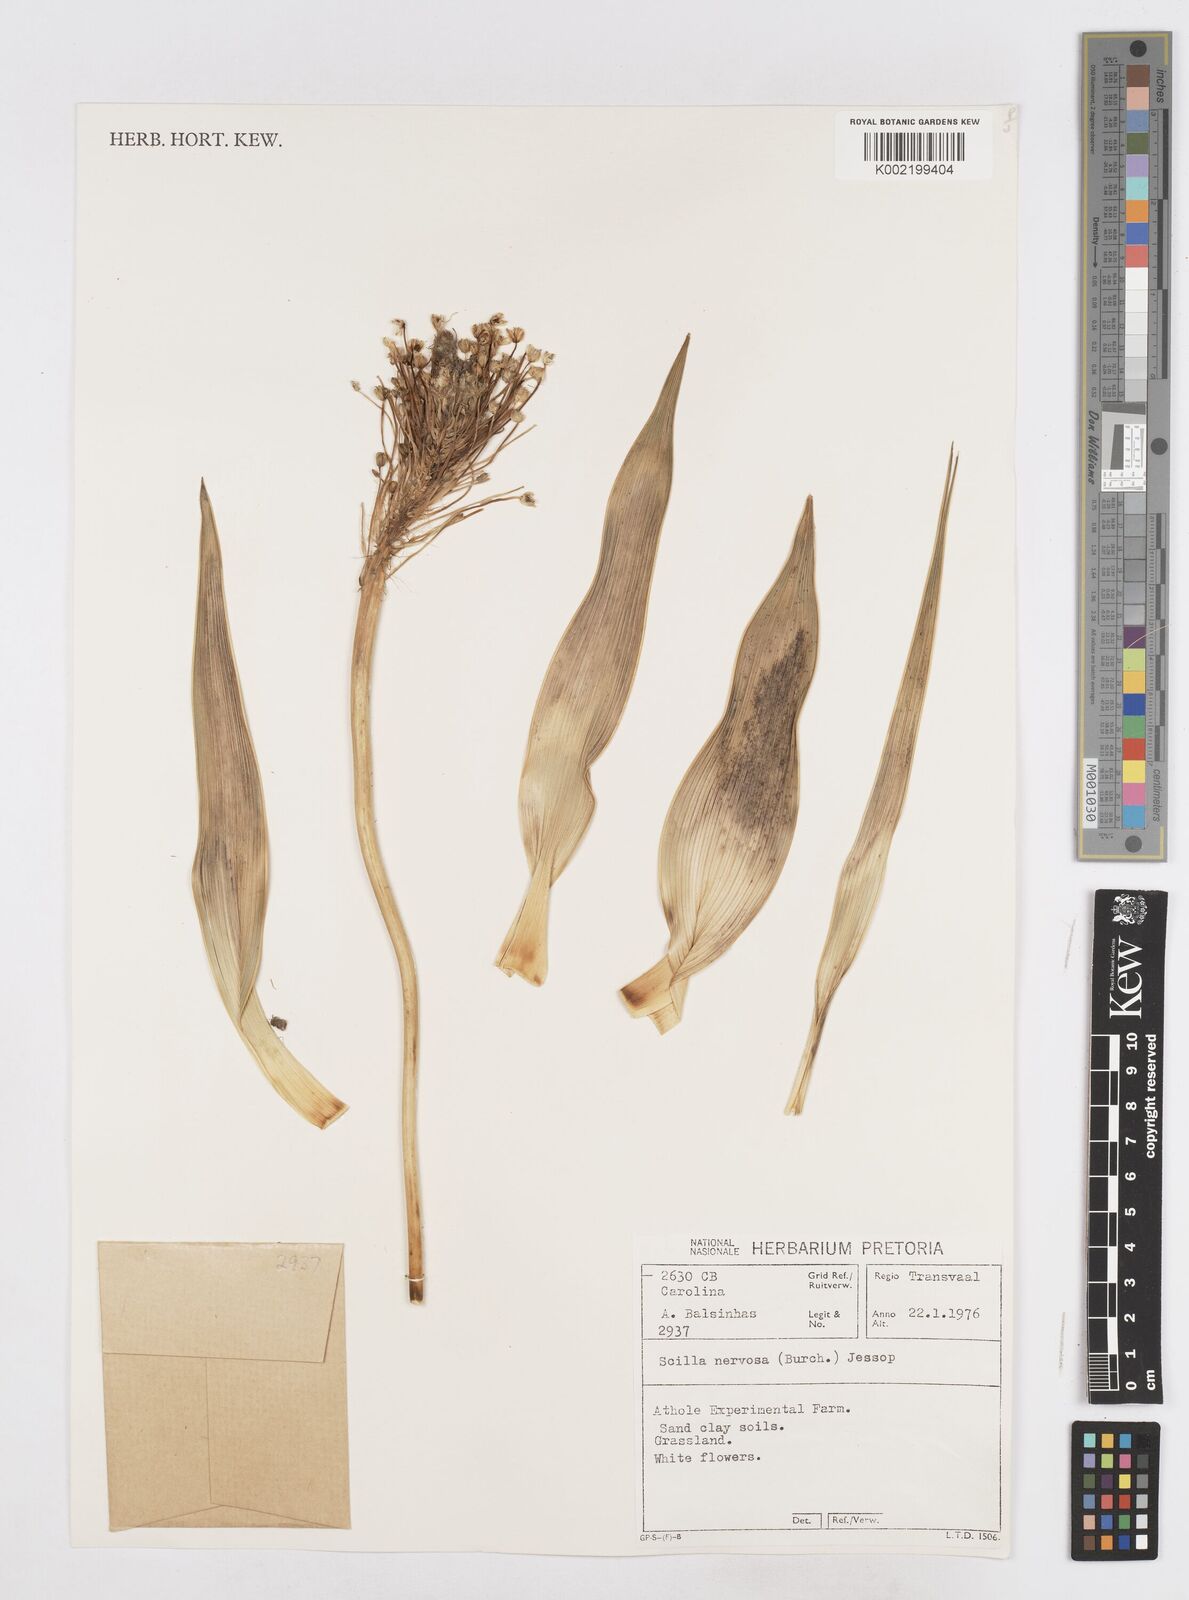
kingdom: Plantae
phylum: Tracheophyta
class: Liliopsida
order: Asparagales
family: Asparagaceae
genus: Schizocarphus
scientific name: Schizocarphus nervosus
